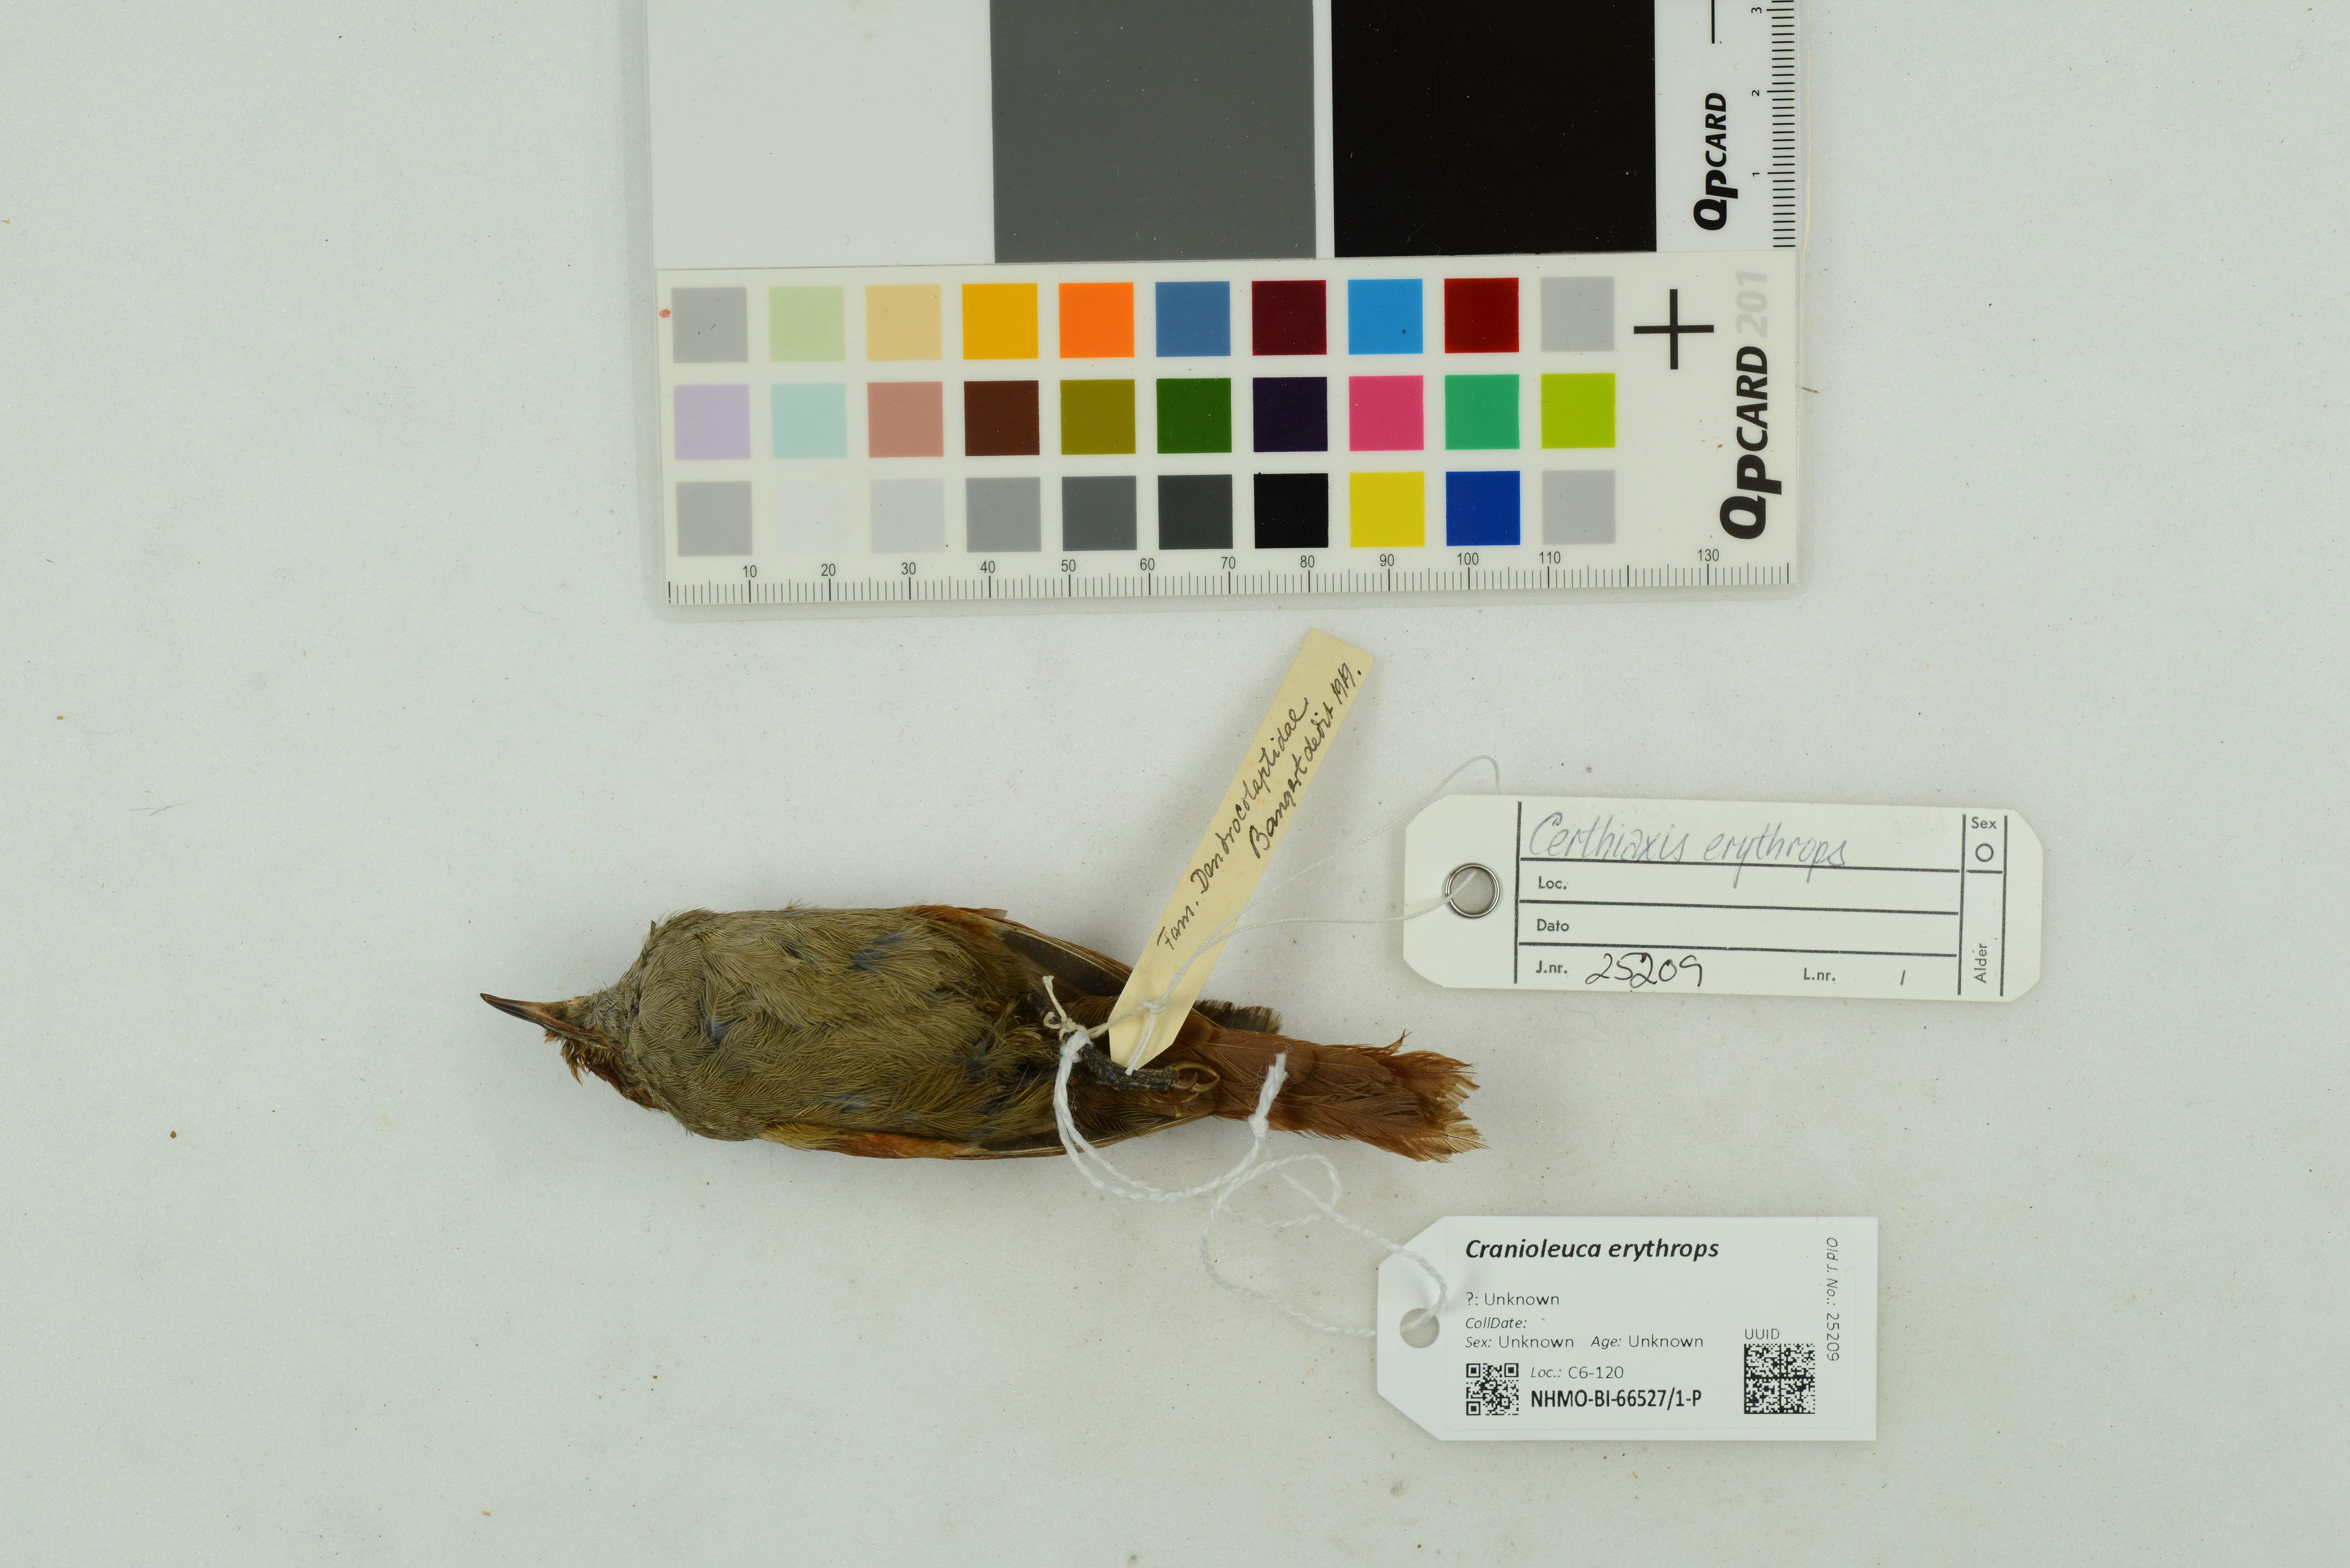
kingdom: Animalia
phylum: Chordata
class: Aves
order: Passeriformes
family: Furnariidae
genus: Cranioleuca
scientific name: Cranioleuca erythrops
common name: Red-faced spinetail
